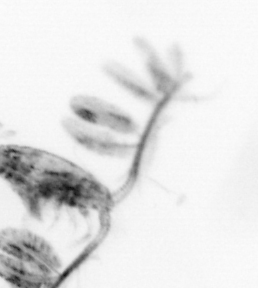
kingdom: Animalia
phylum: Arthropoda
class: Copepoda
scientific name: Copepoda
